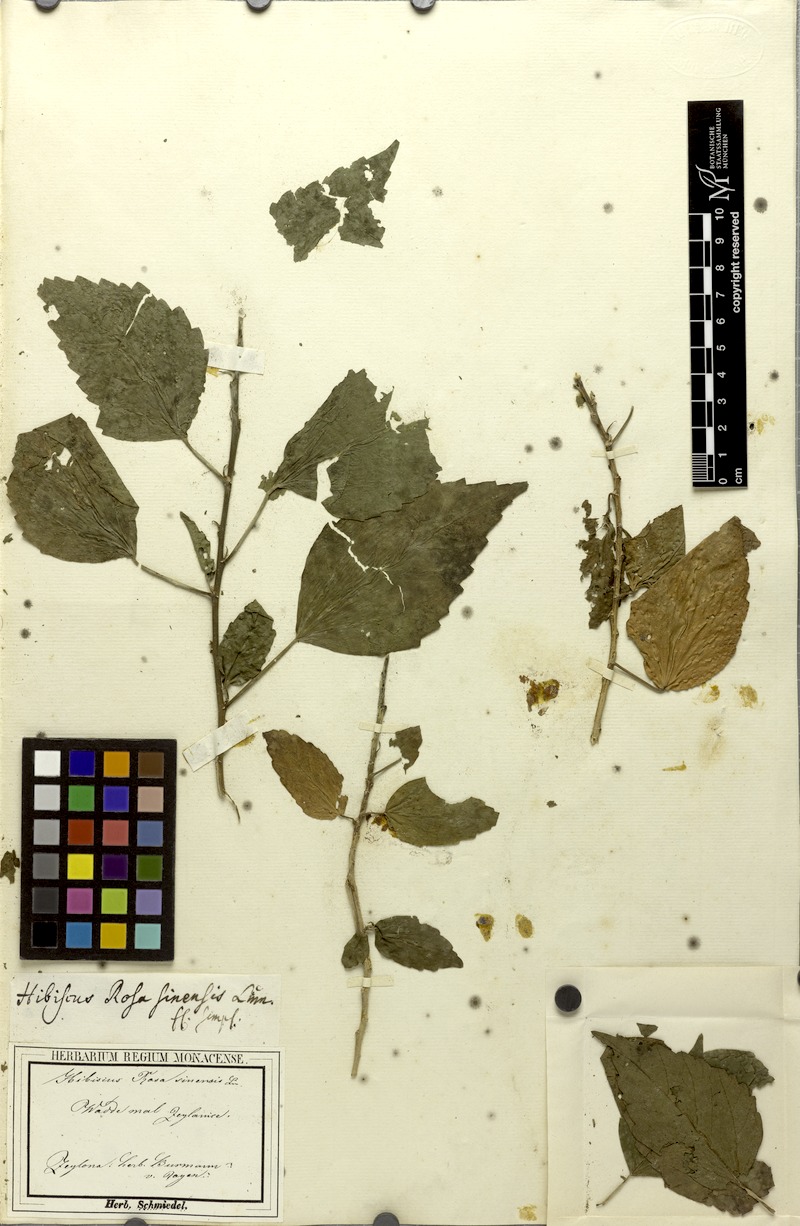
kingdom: Plantae
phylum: Tracheophyta
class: Magnoliopsida
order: Malvales
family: Malvaceae
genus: Hibiscus
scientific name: Hibiscus rosa-sinensis
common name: Hibiscus
